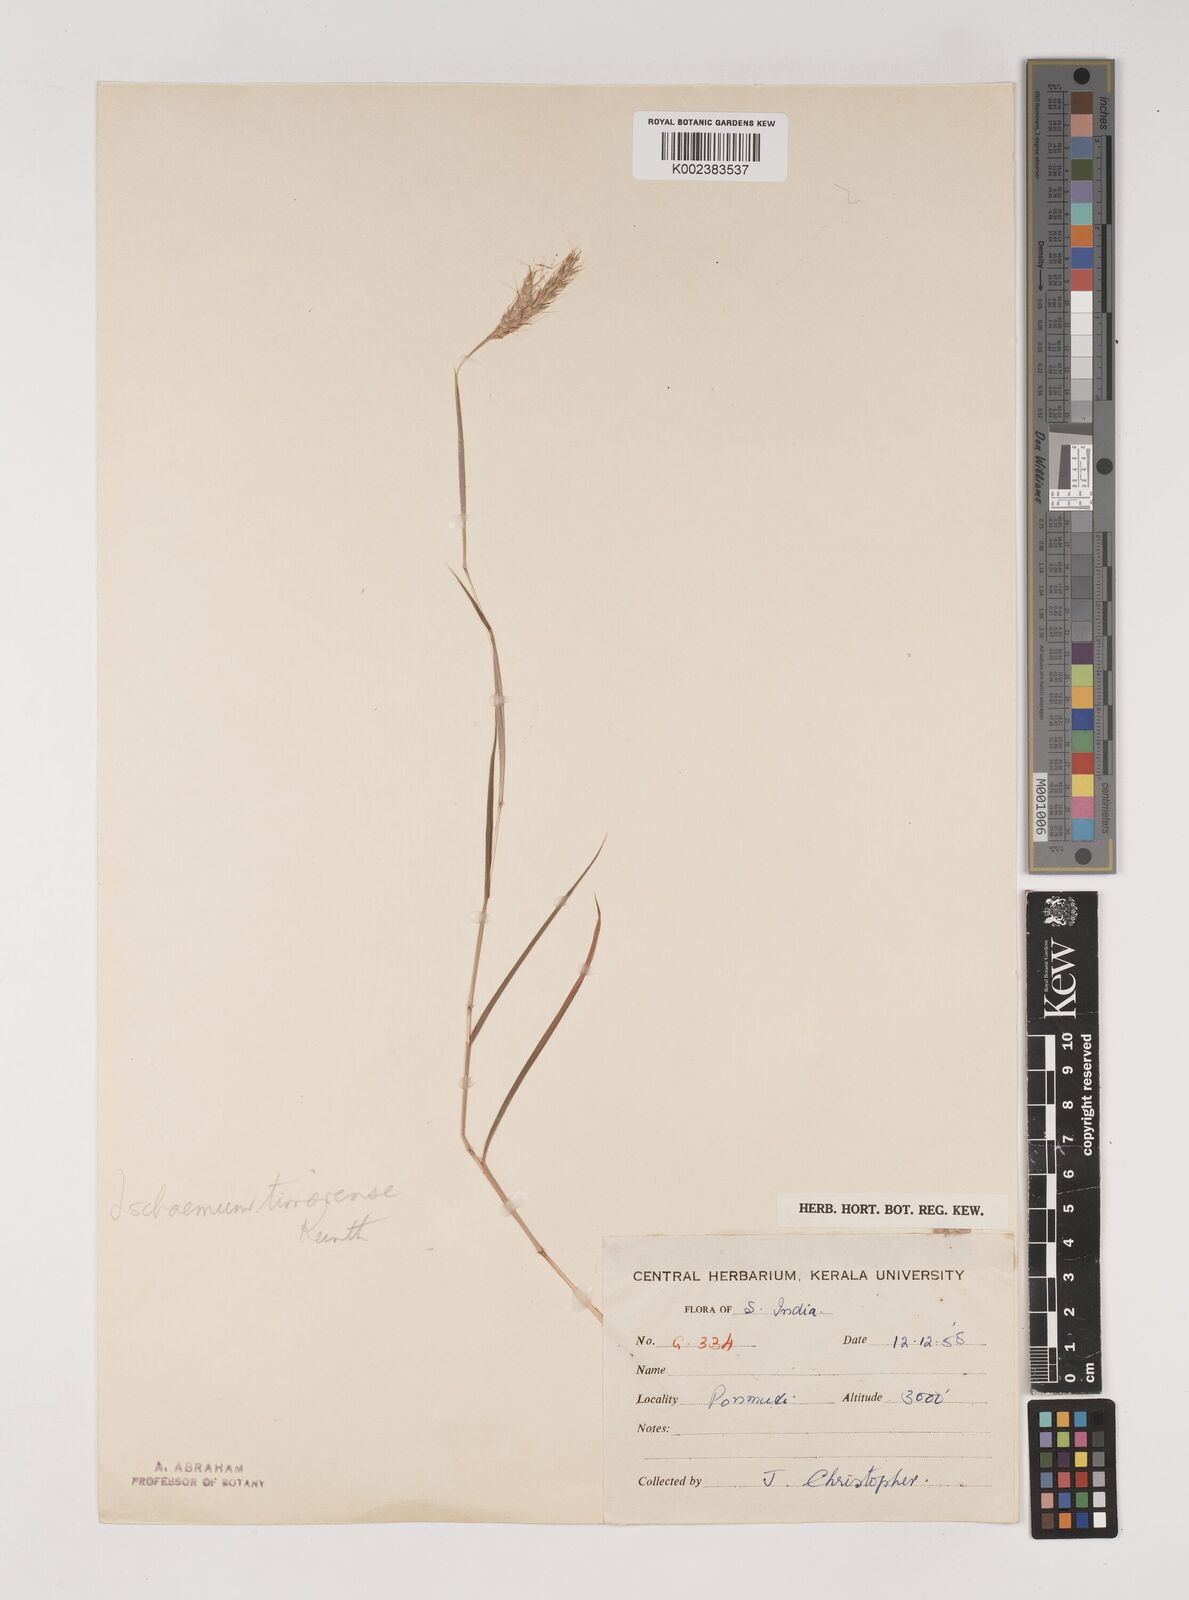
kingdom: Plantae
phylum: Tracheophyta
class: Liliopsida
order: Poales
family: Poaceae
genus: Ischaemum
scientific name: Ischaemum timorense
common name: Stalkleaf murainagrass
